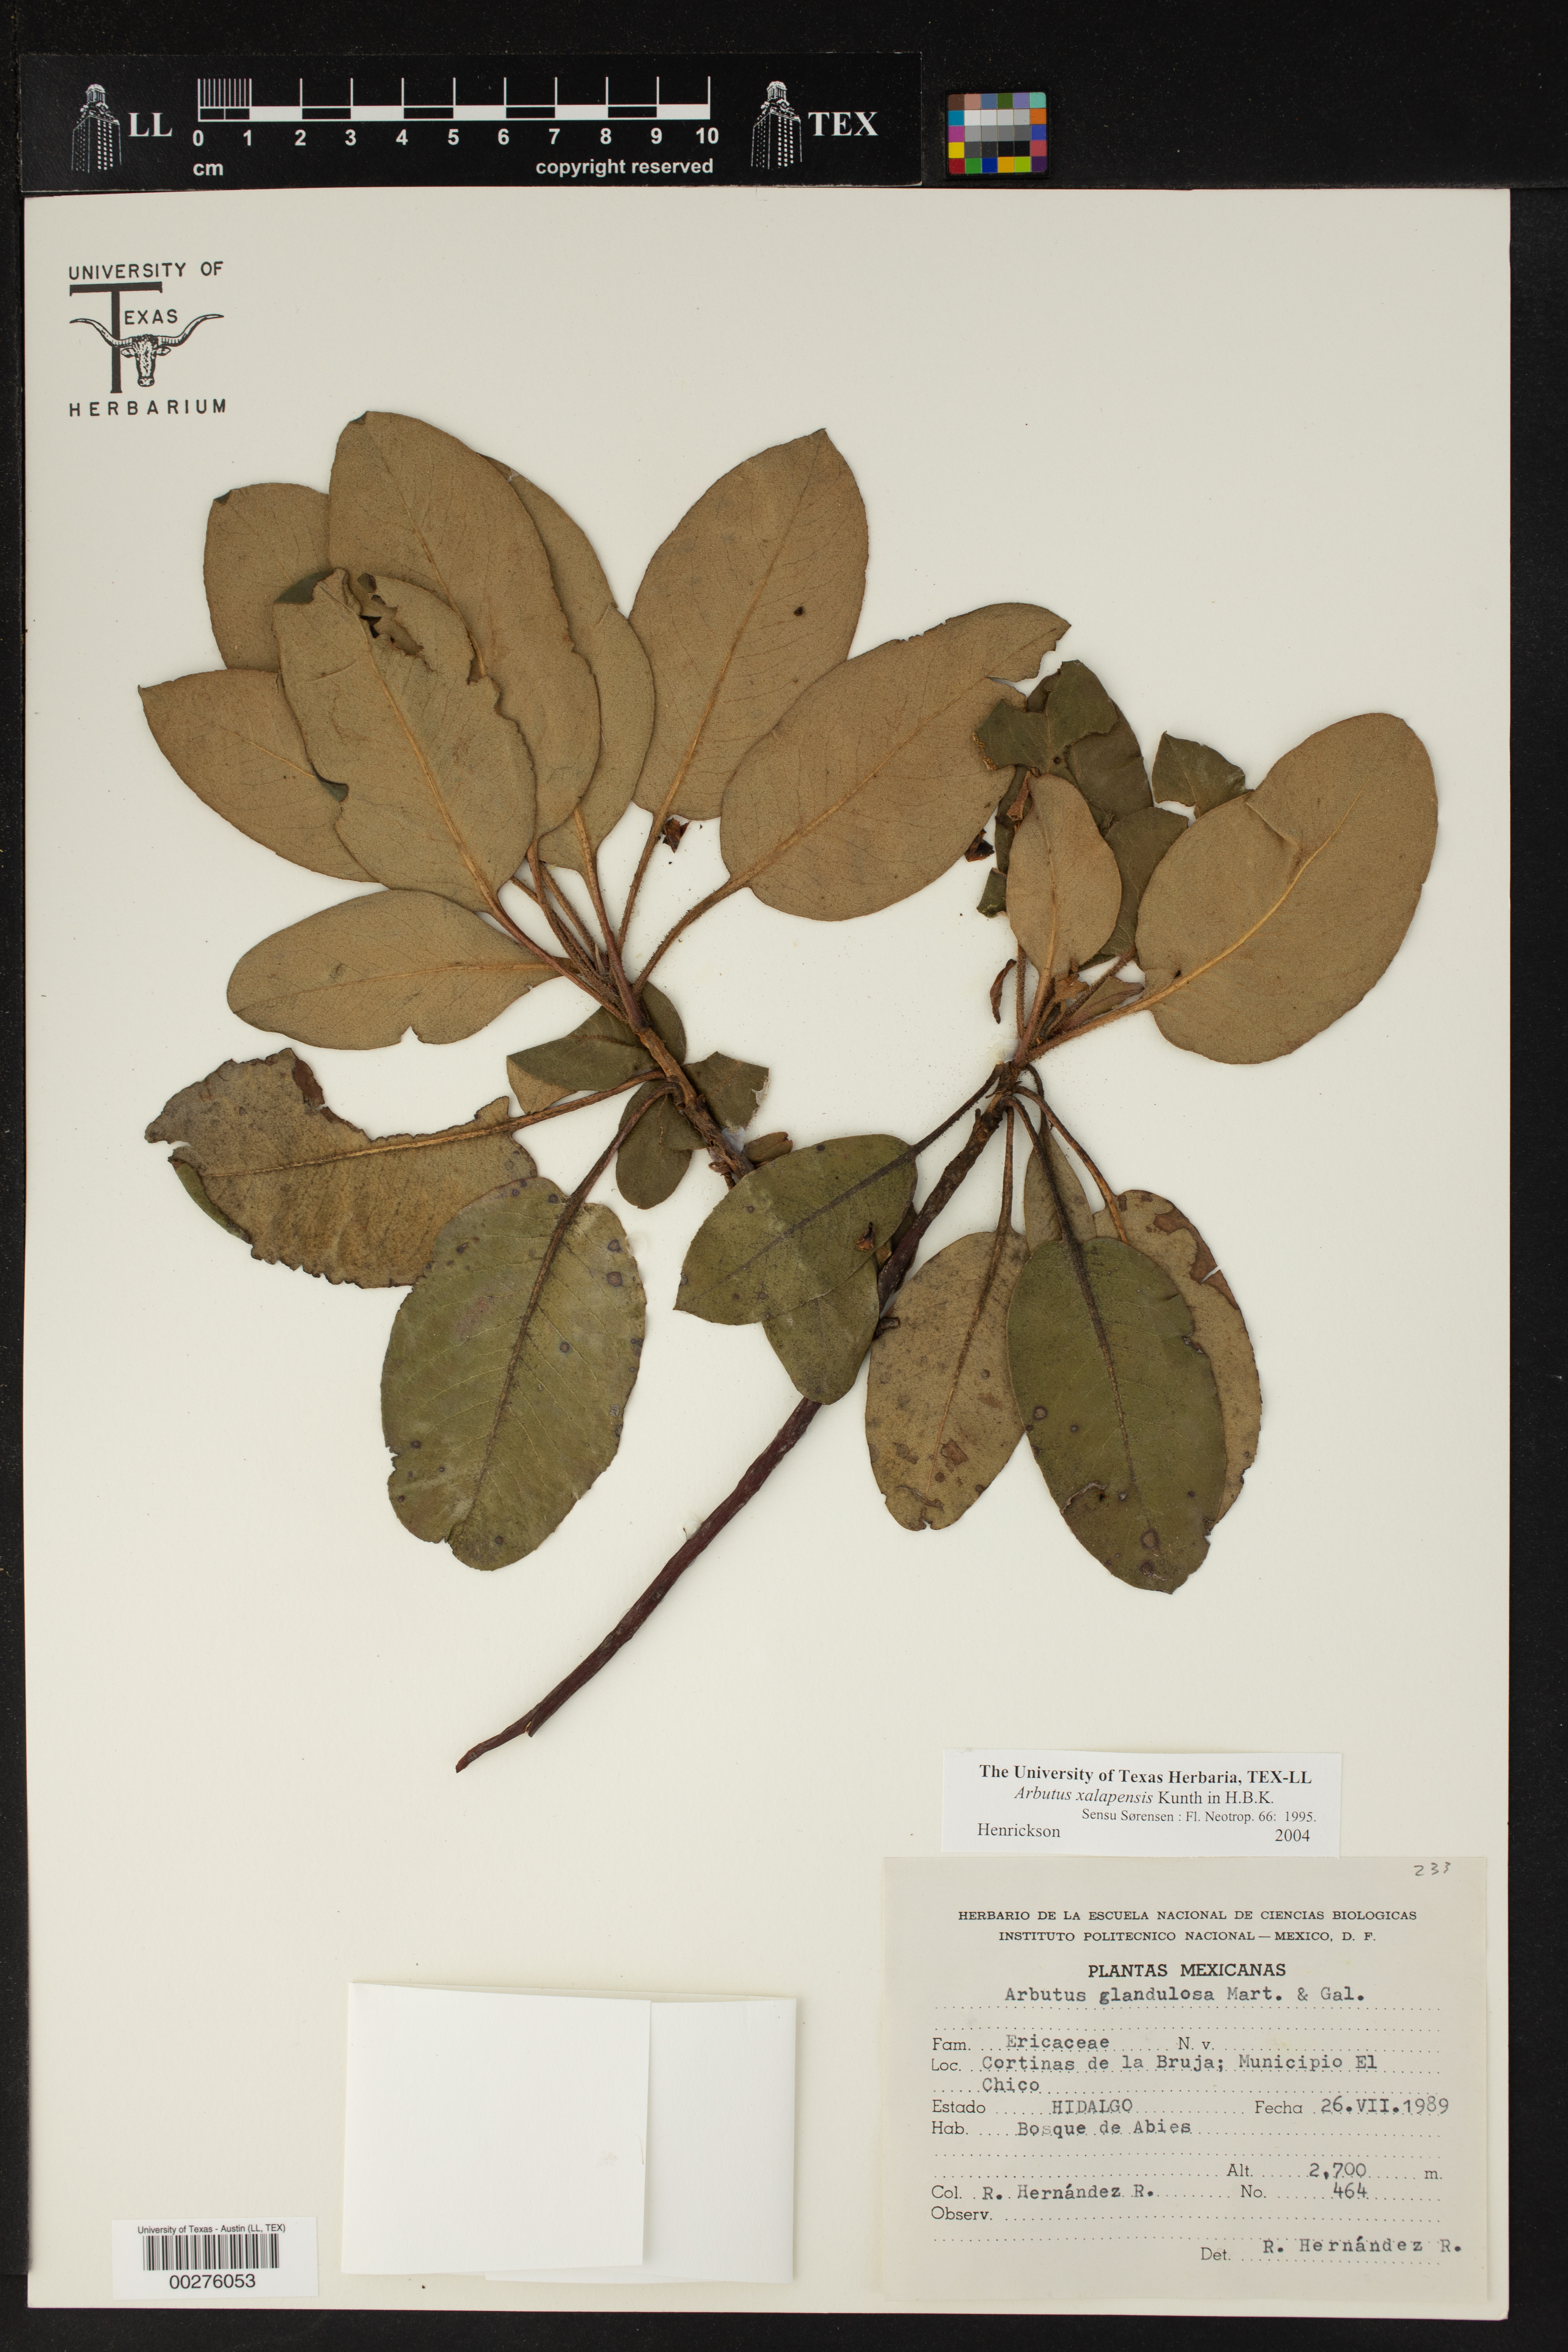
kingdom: Plantae
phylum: Tracheophyta
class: Magnoliopsida
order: Ericales
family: Ericaceae
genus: Arbutus
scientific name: Arbutus xalapensis
